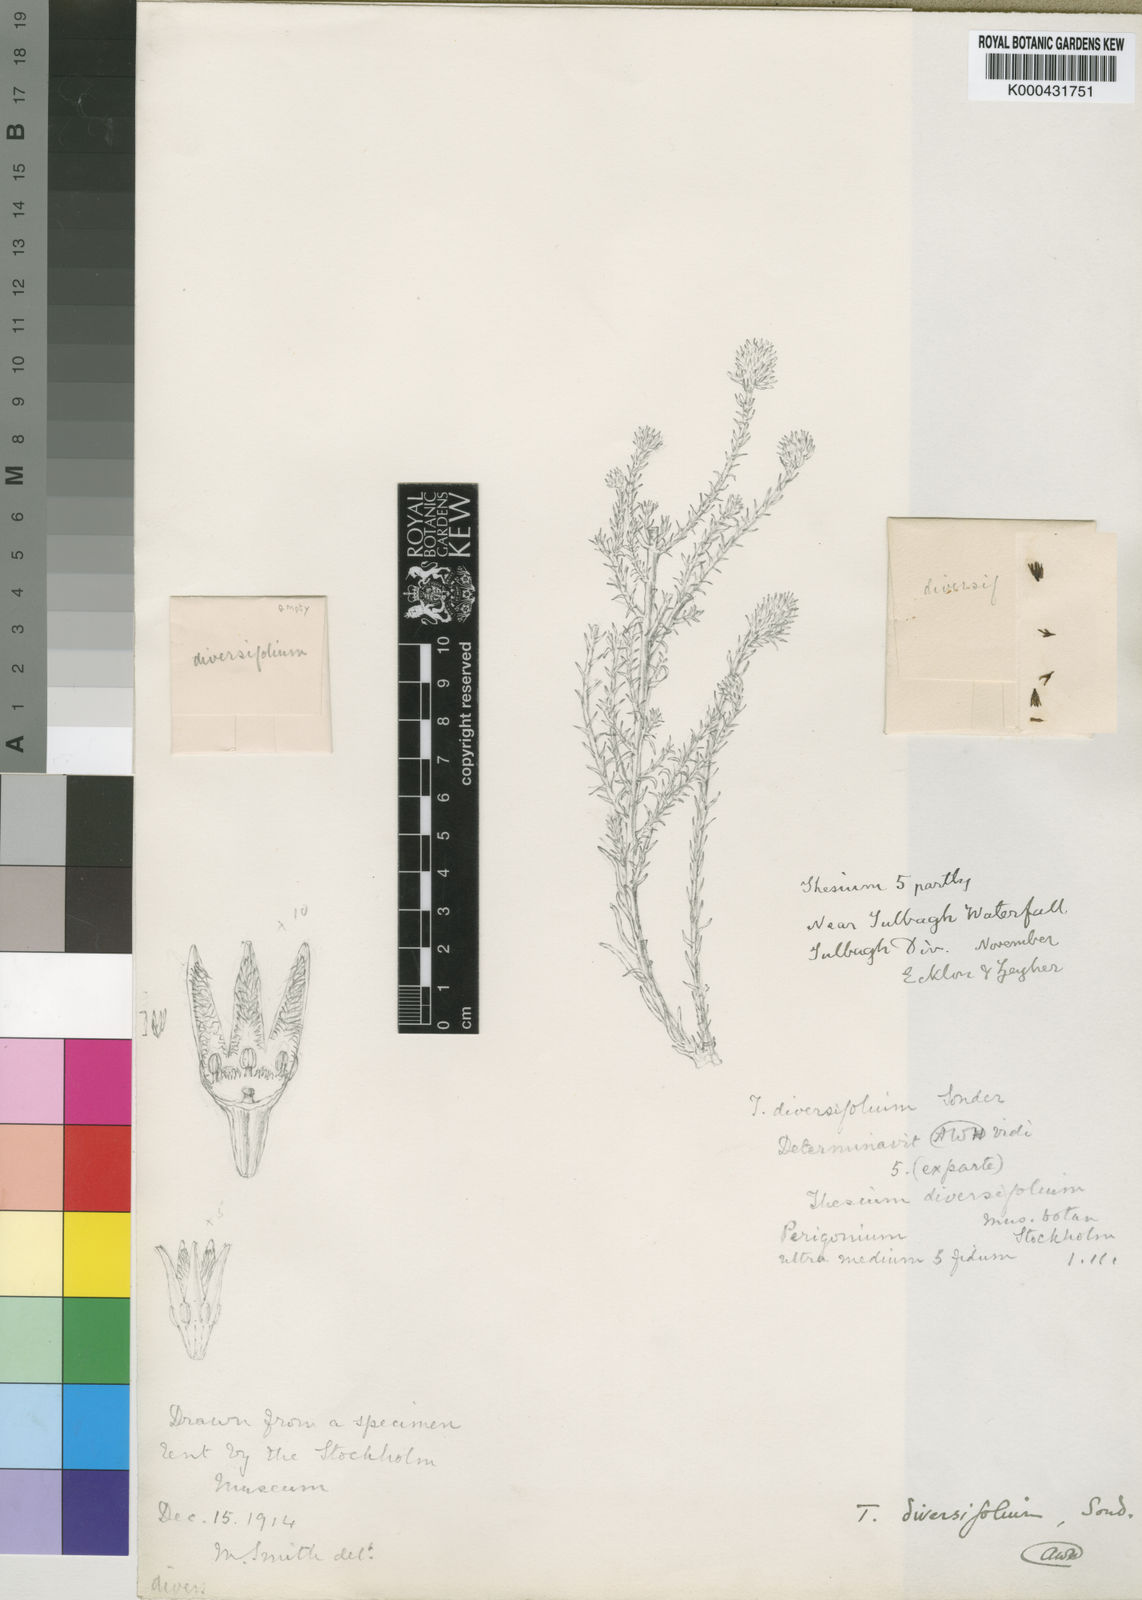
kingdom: Plantae
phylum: Tracheophyta
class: Magnoliopsida
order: Santalales
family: Thesiaceae
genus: Thesium
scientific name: Thesium diversifolium
